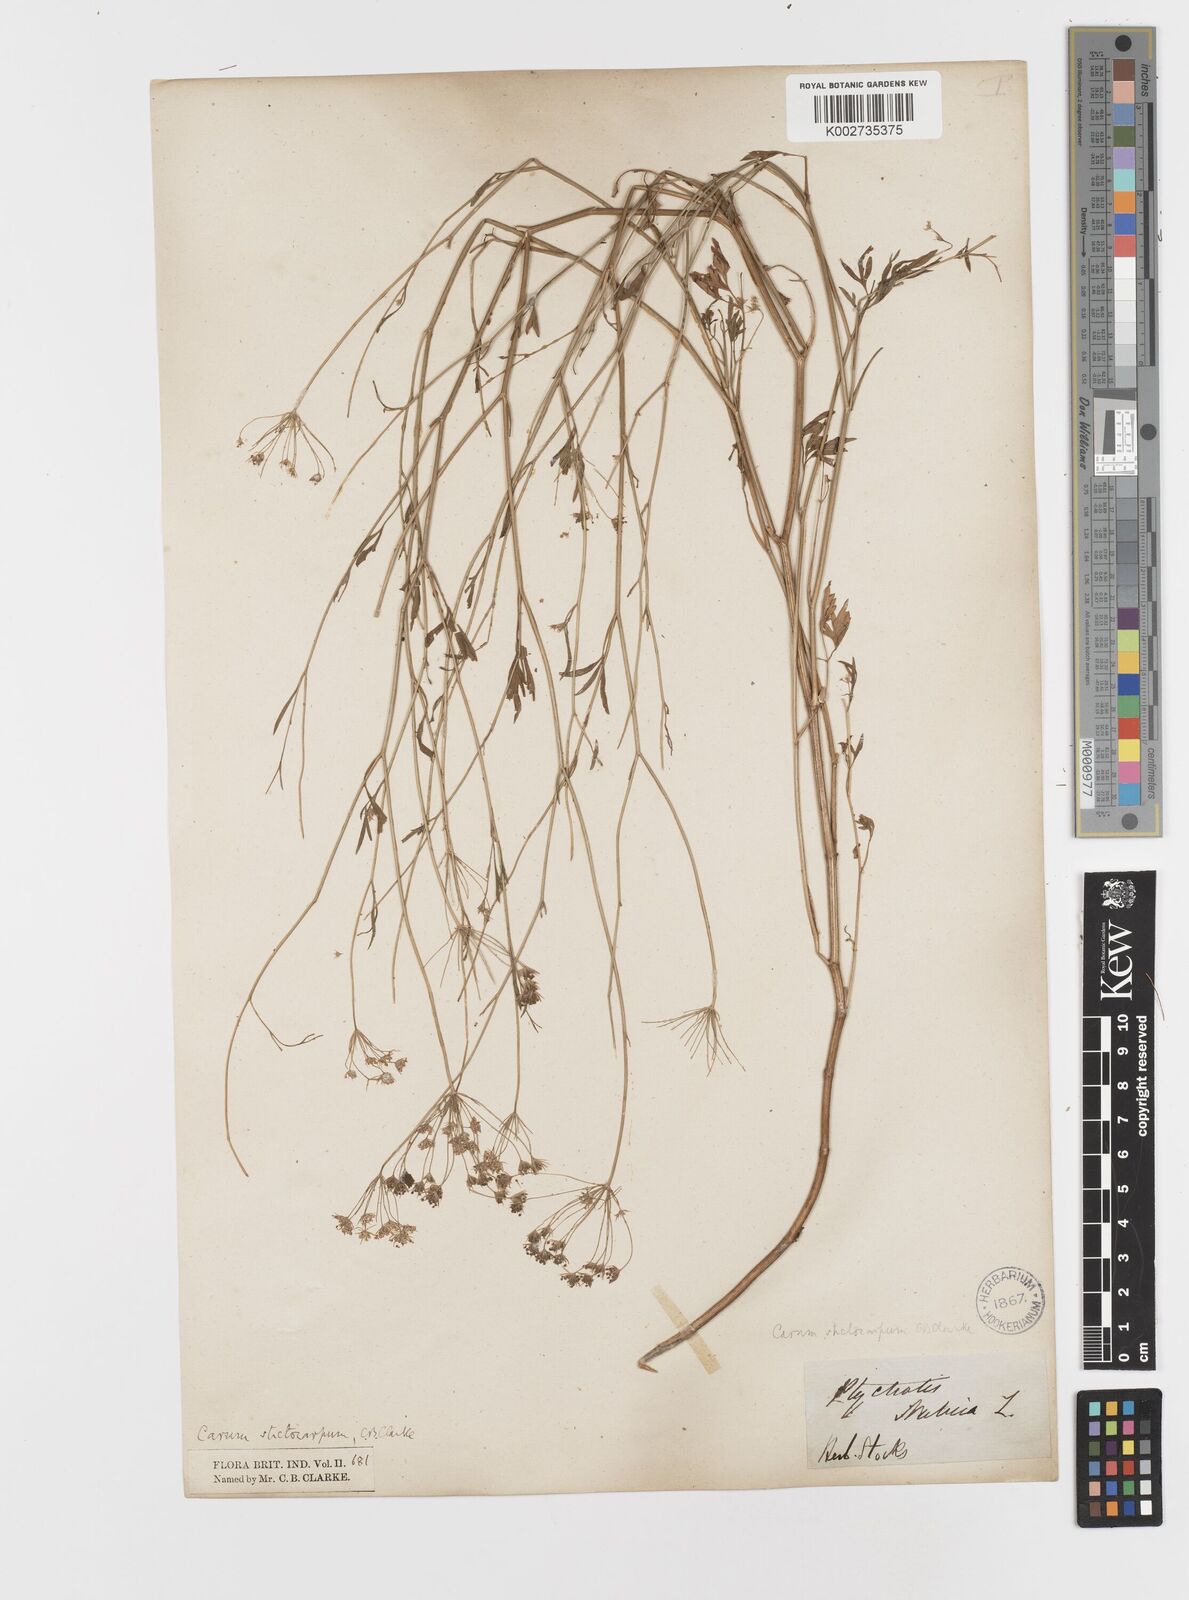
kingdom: Plantae
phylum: Tracheophyta
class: Magnoliopsida
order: Apiales
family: Apiaceae
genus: Psammogeton
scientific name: Psammogeton involucratum
